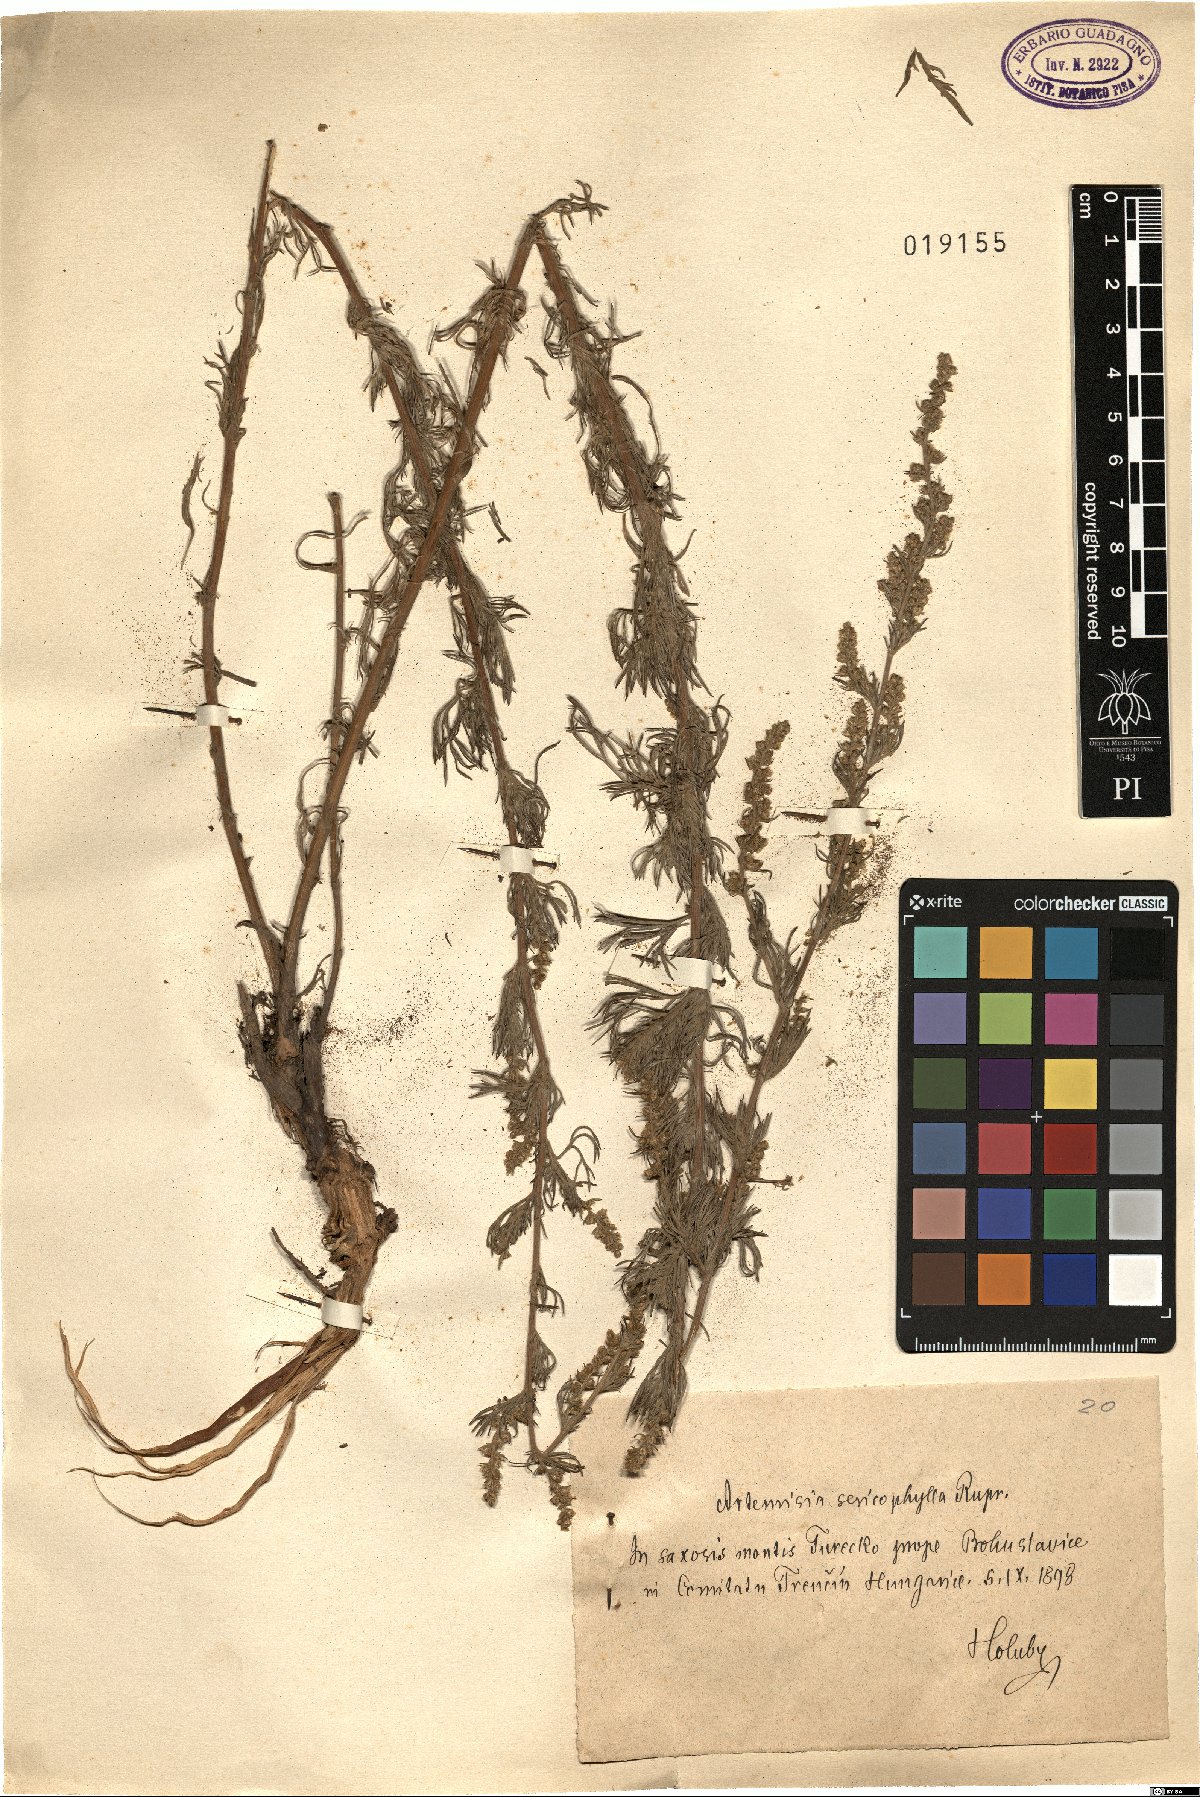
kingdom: Plantae
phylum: Tracheophyta
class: Magnoliopsida
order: Asterales
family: Asteraceae
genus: Artemisia
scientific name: Artemisia marschalliana
